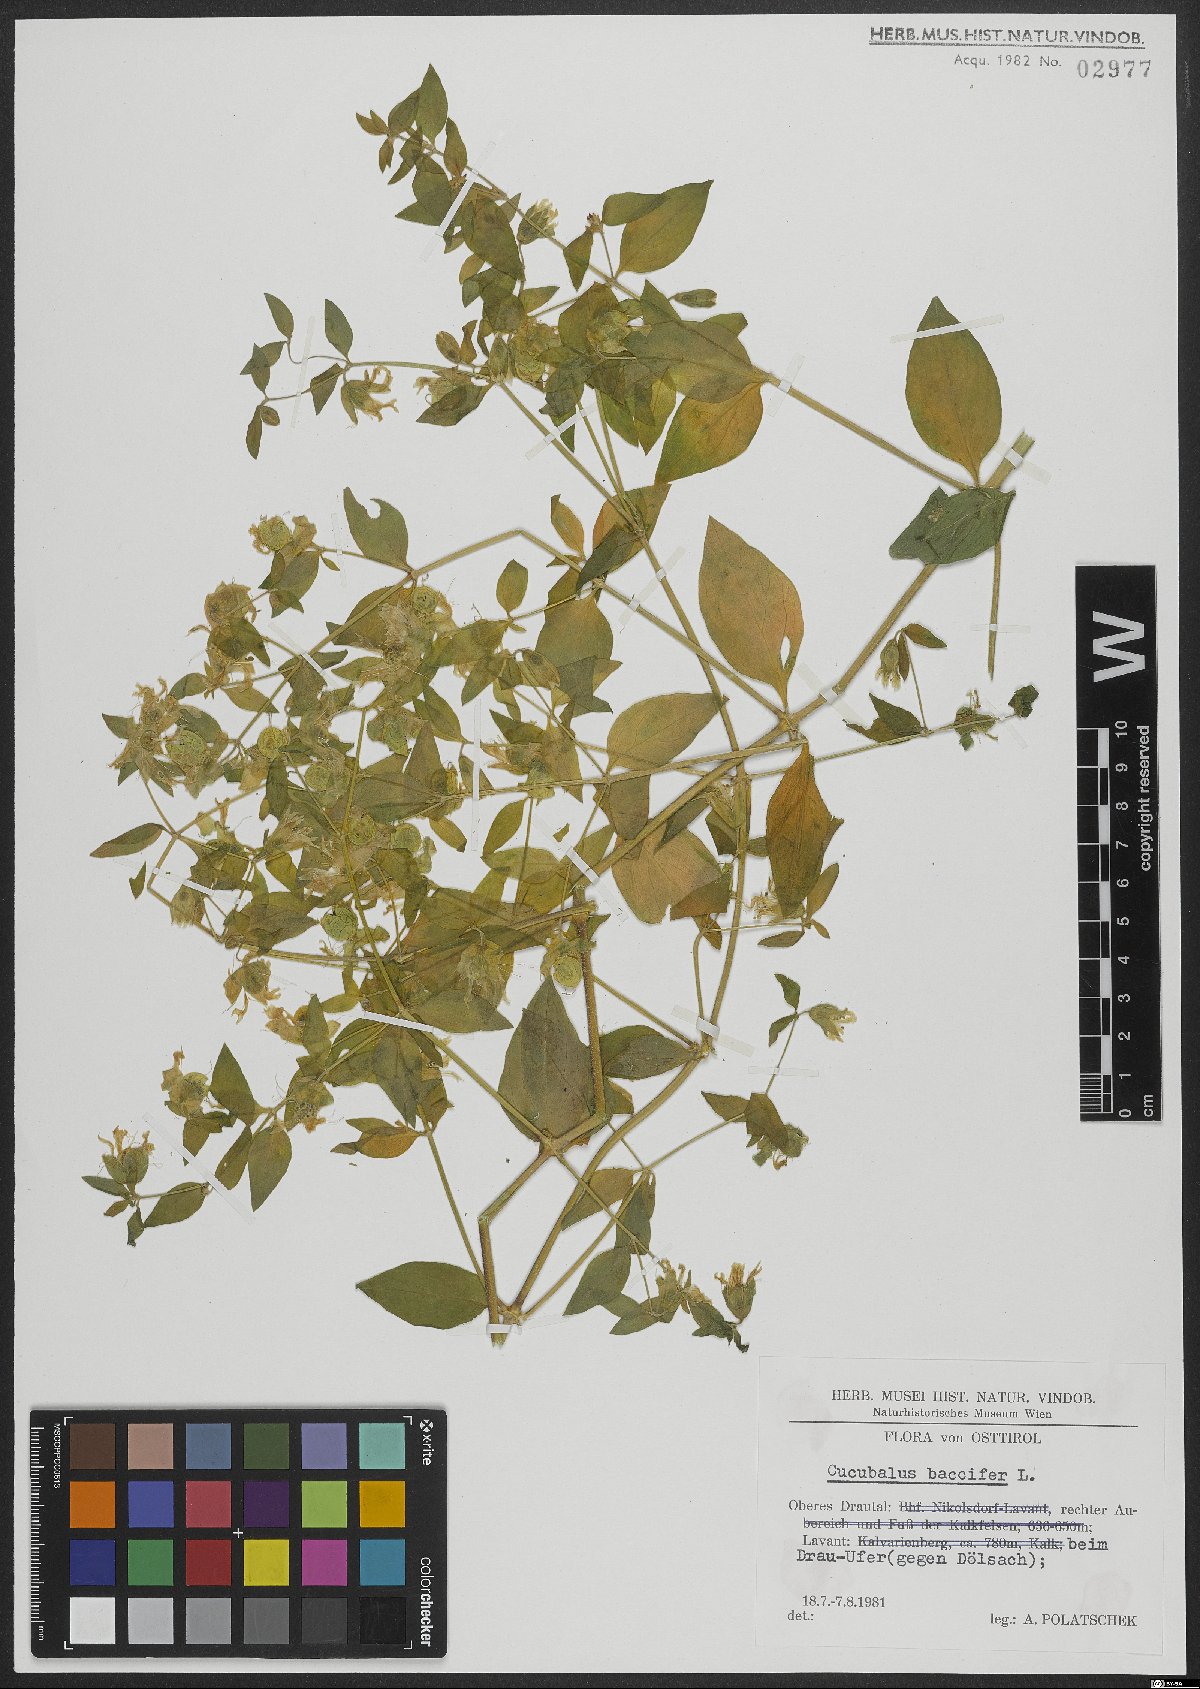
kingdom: Plantae
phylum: Tracheophyta
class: Magnoliopsida
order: Caryophyllales
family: Caryophyllaceae
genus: Silene
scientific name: Silene baccifera
